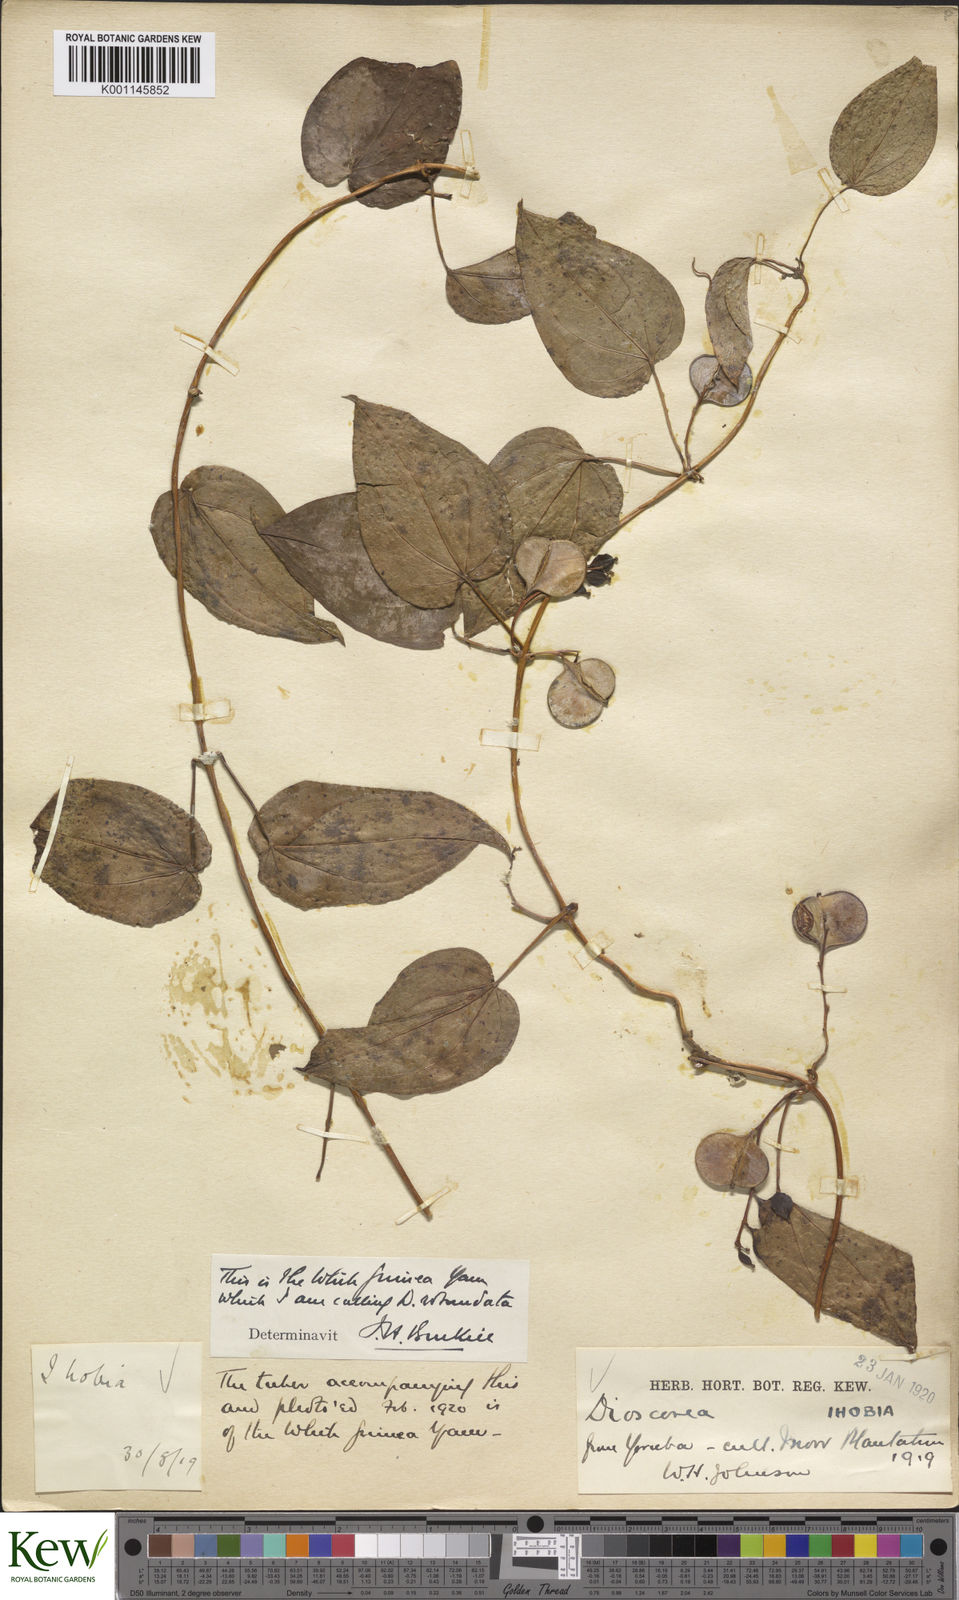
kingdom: Plantae
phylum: Tracheophyta
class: Liliopsida
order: Dioscoreales
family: Dioscoreaceae
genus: Dioscorea
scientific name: Dioscorea cayenensis
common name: Attoto yam
